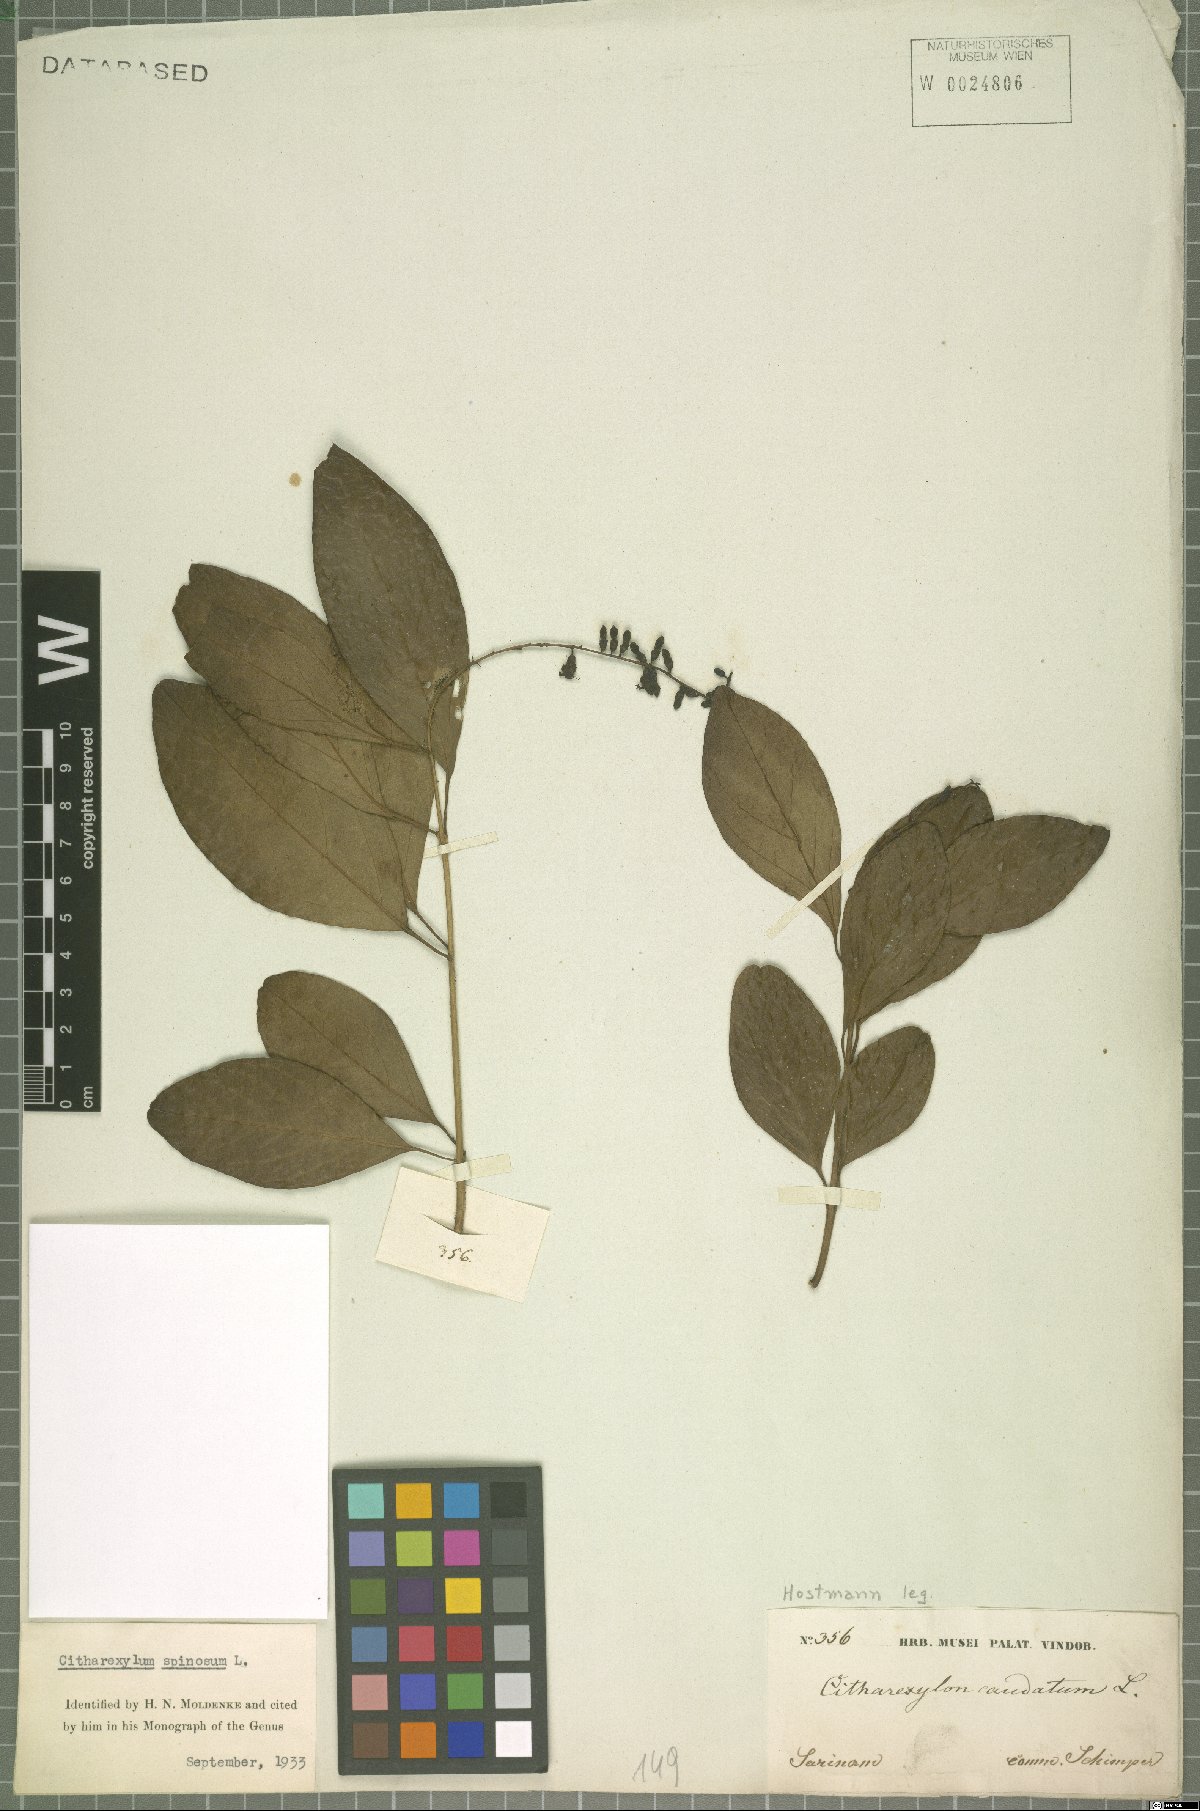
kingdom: Plantae
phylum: Tracheophyta
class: Magnoliopsida
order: Lamiales
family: Verbenaceae
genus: Citharexylum
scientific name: Citharexylum spinosum
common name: Fiddlewood
